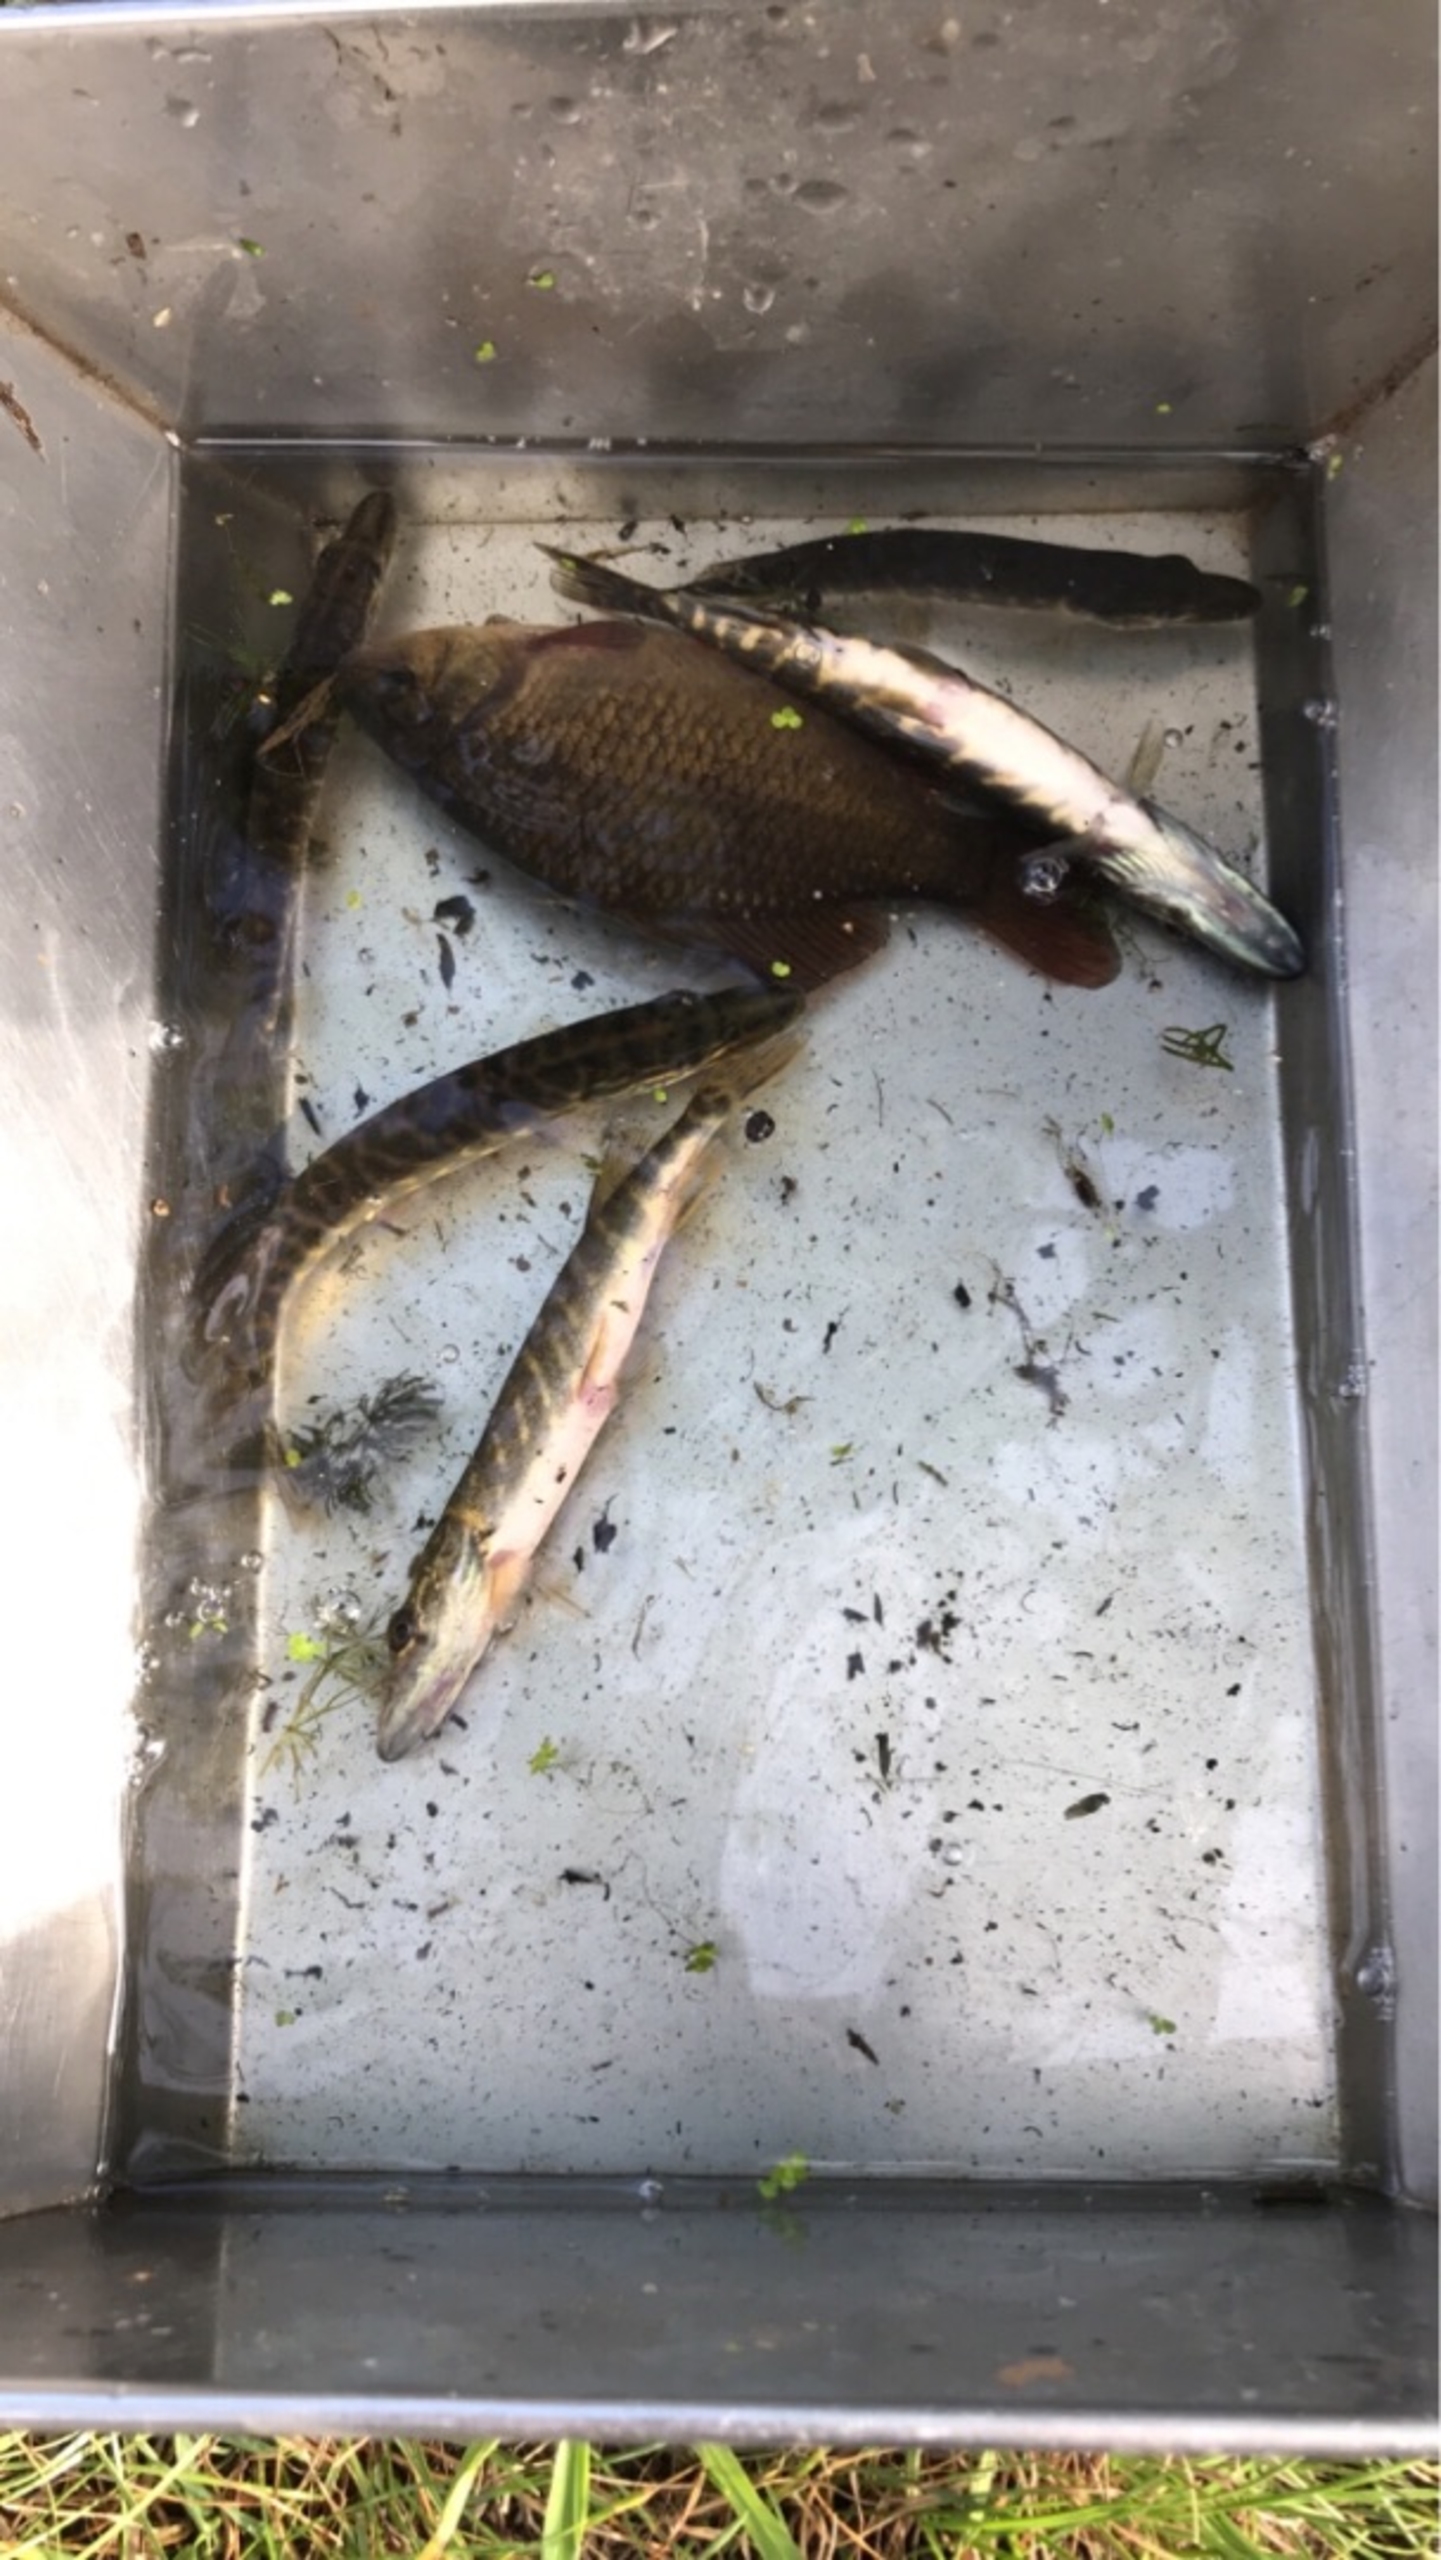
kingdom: Animalia
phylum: Chordata
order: Esociformes
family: Esocidae
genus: Esox
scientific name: Esox lucius
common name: Gedde
